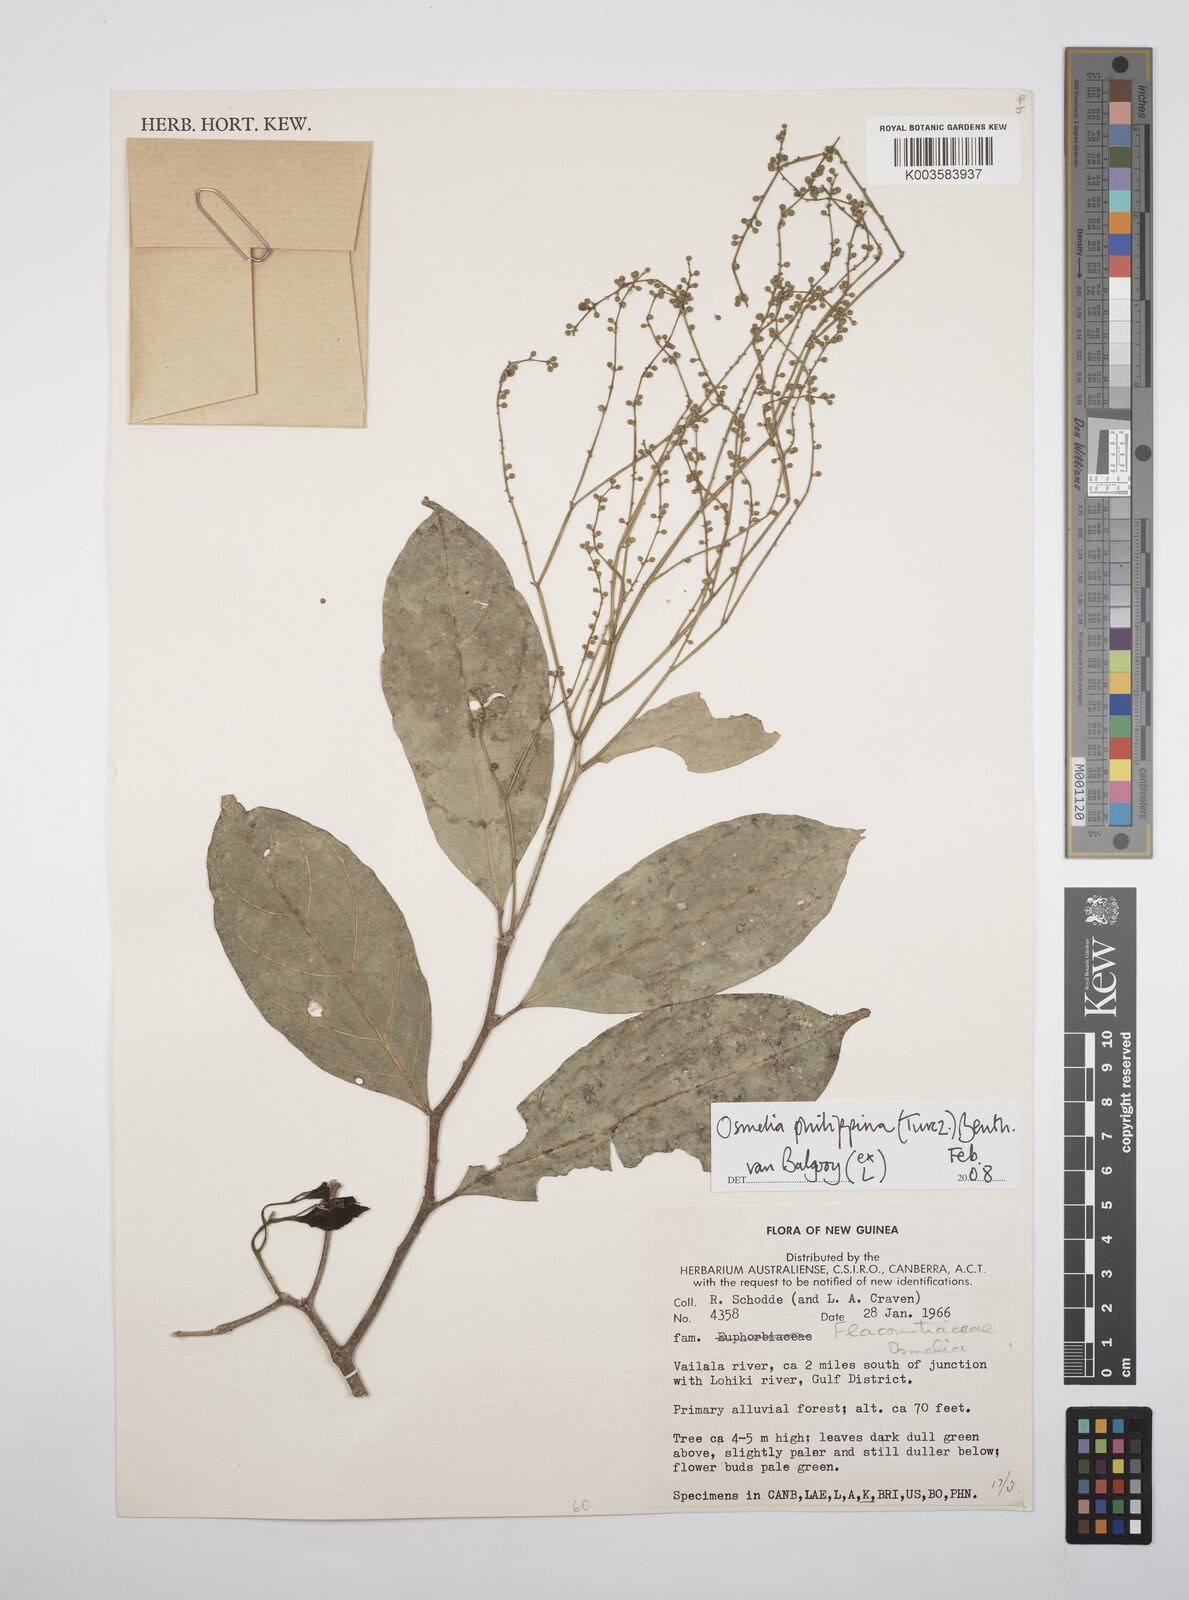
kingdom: Plantae
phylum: Tracheophyta
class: Magnoliopsida
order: Malpighiales
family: Salicaceae
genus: Osmelia
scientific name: Osmelia philippina
